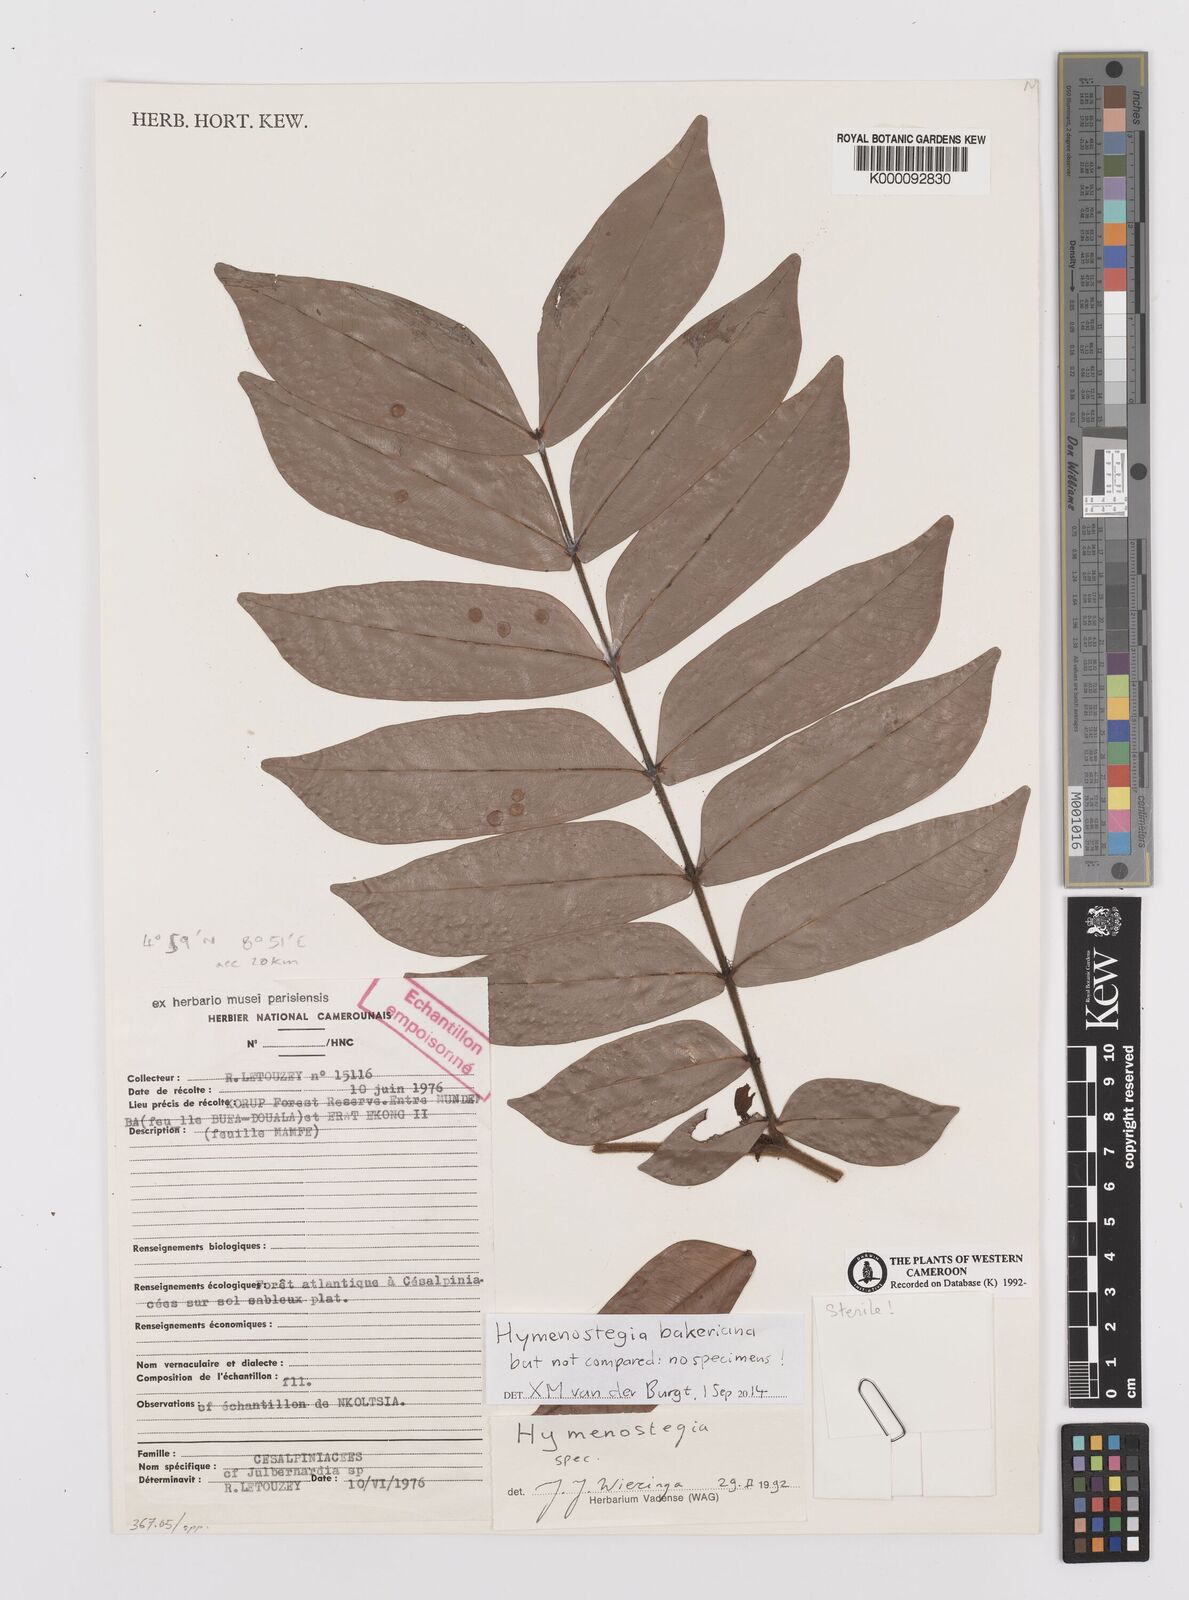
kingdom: Plantae
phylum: Tracheophyta
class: Magnoliopsida
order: Fabales
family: Fabaceae
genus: Hymenostegia
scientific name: Hymenostegia
